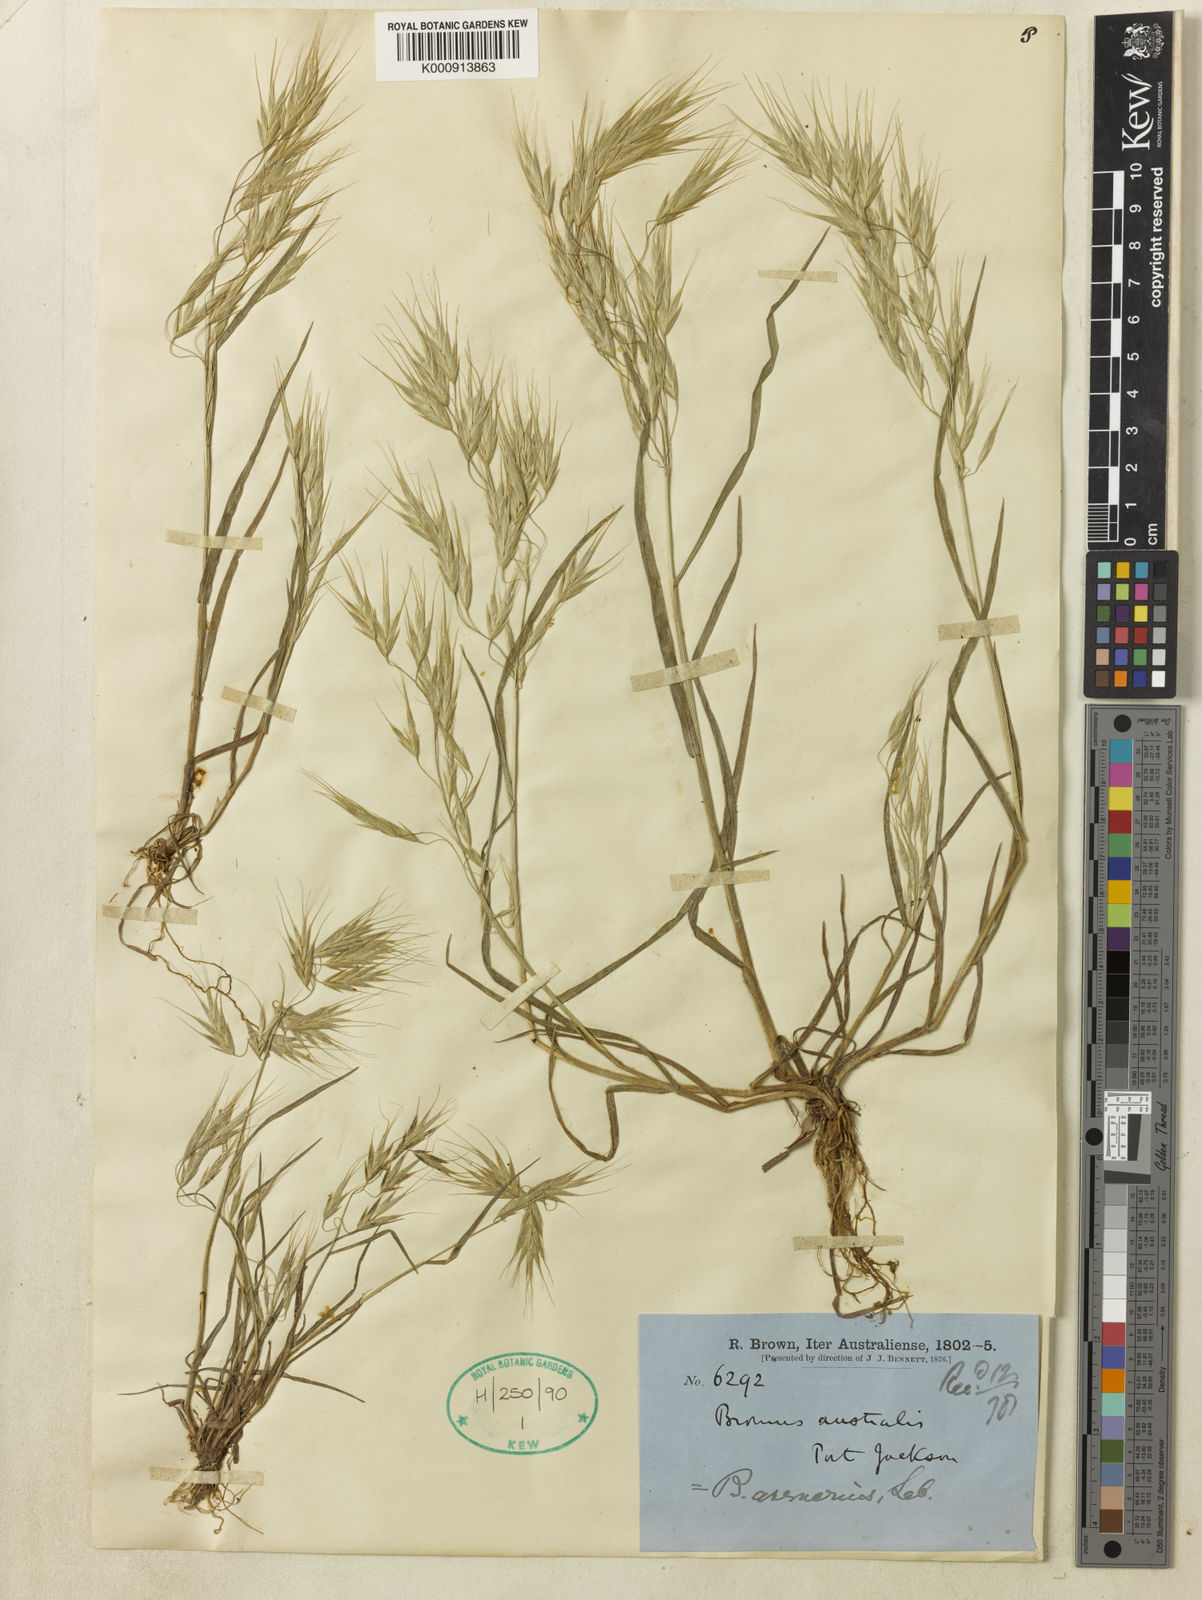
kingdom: Plantae
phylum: Tracheophyta
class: Liliopsida
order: Poales
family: Poaceae
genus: Bromus
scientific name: Bromus arenarius
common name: Australian brome
